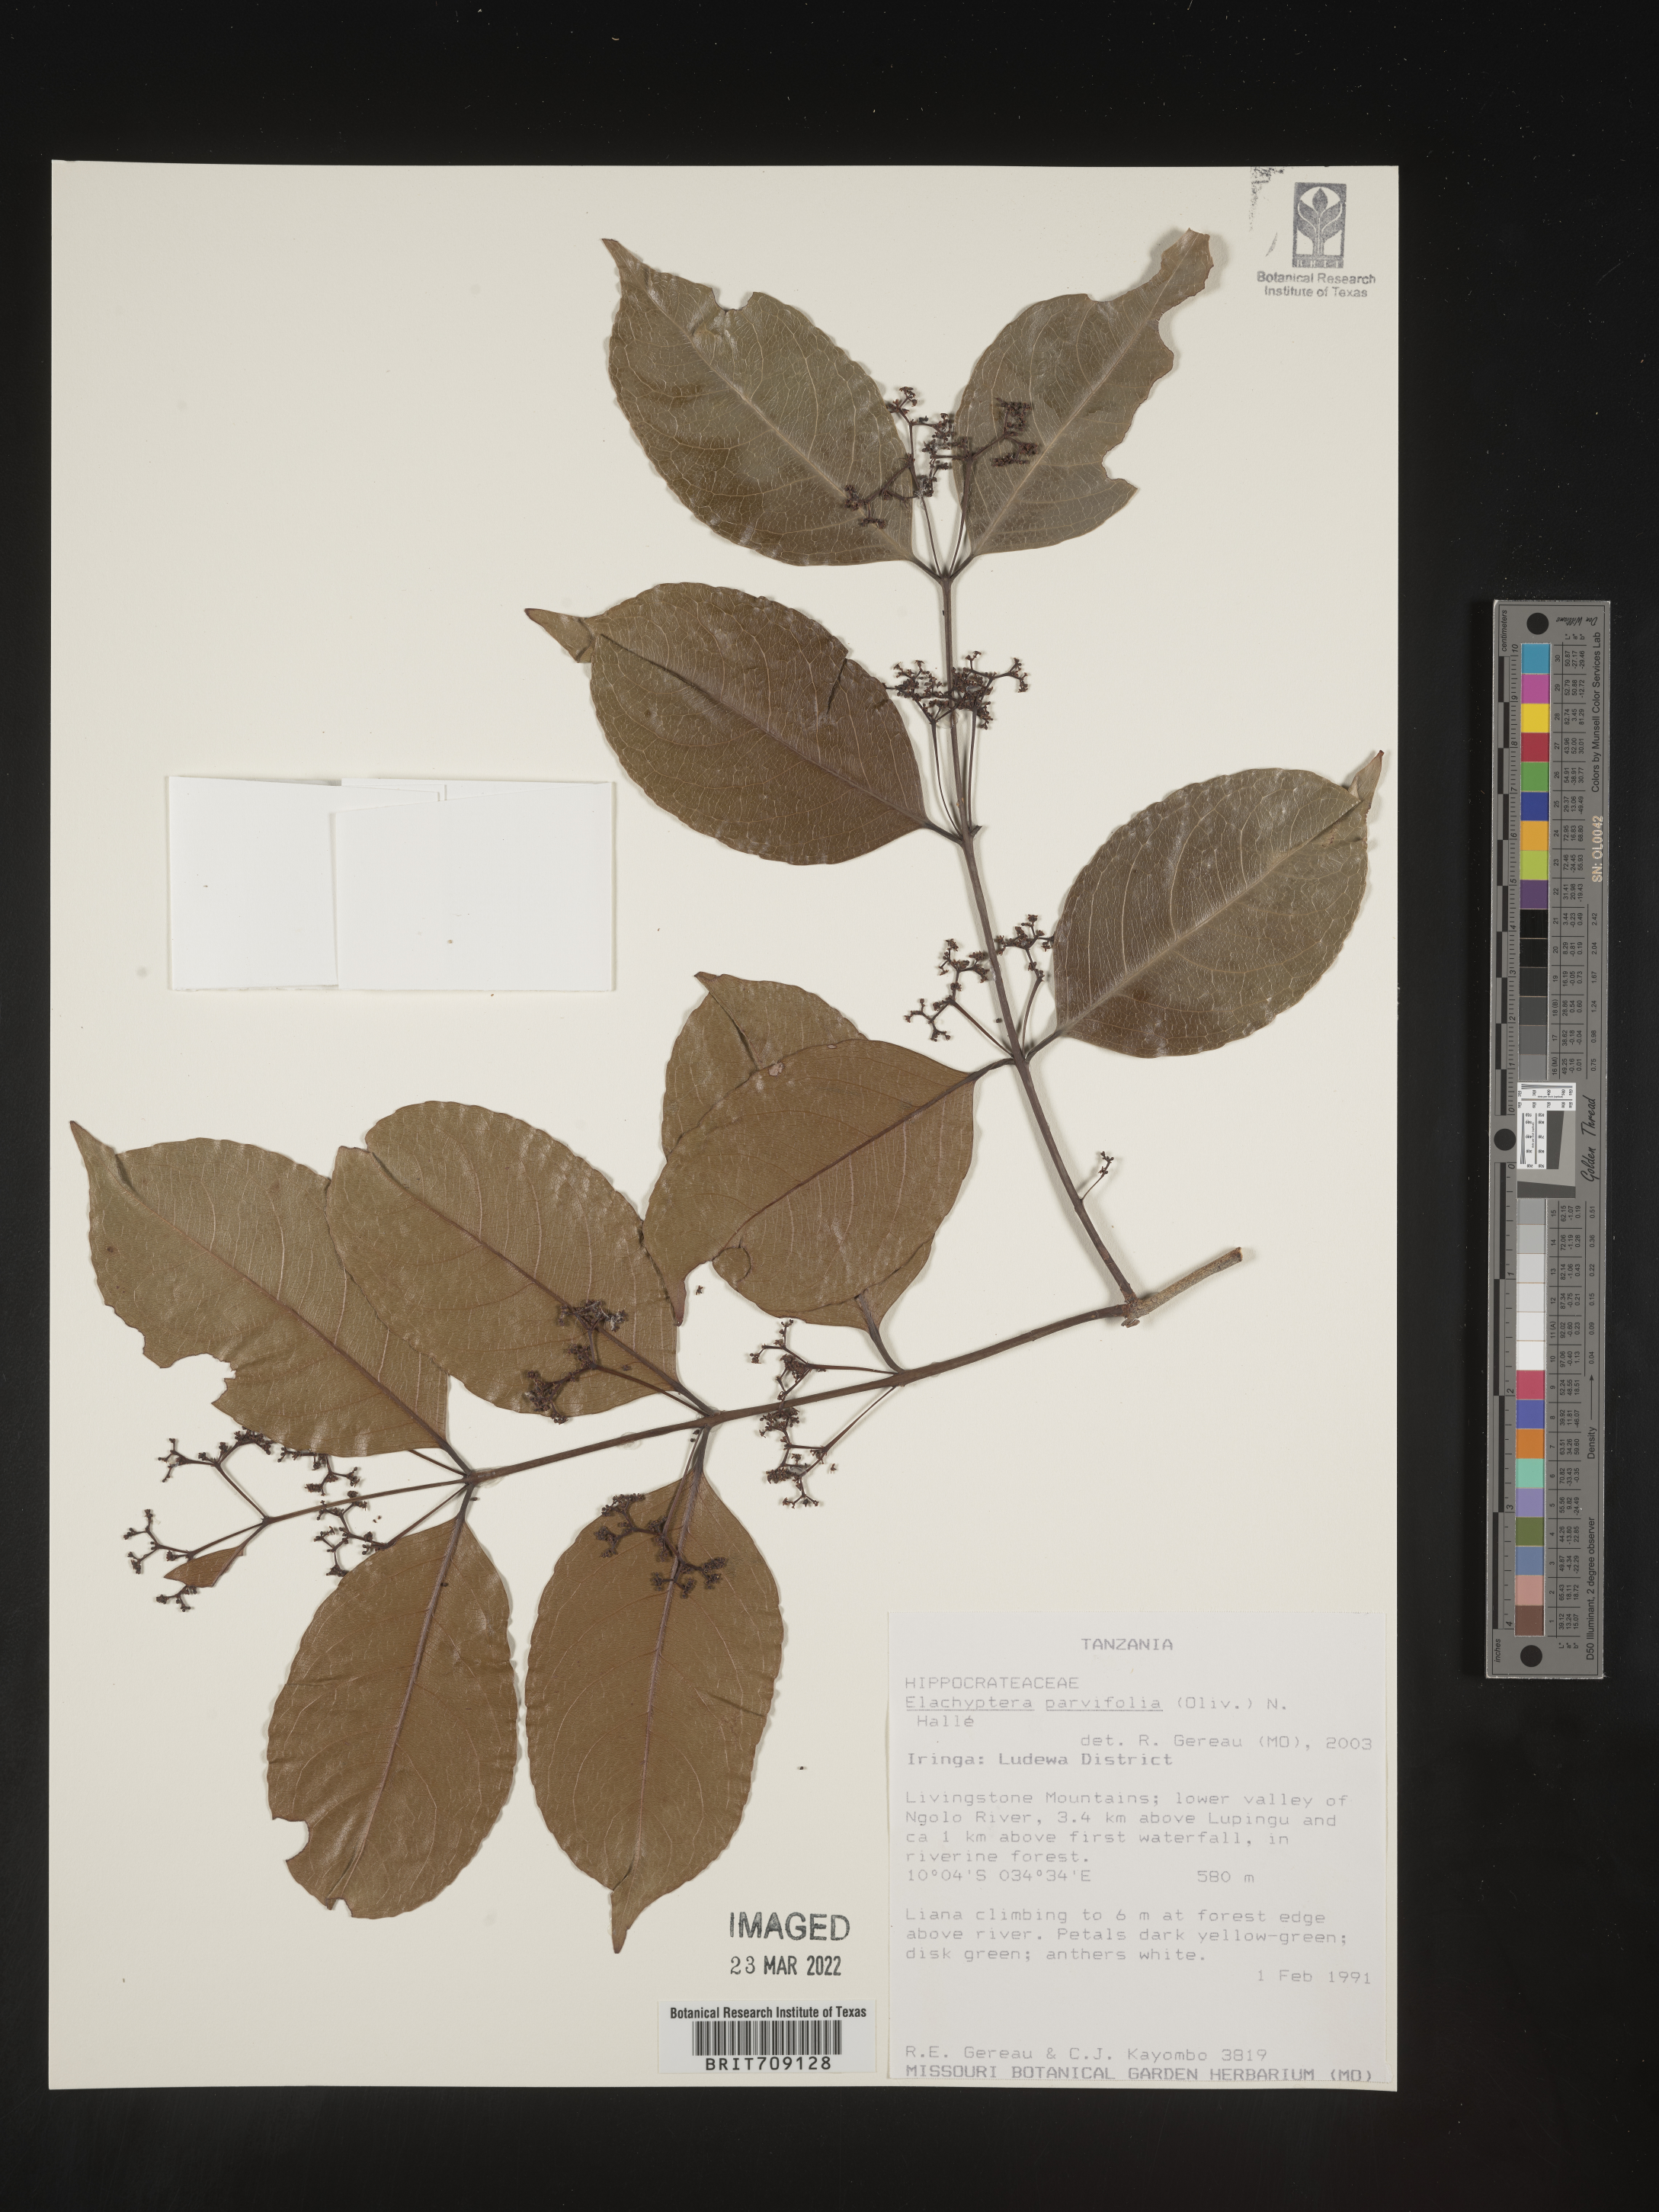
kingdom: Plantae
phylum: Tracheophyta
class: Magnoliopsida
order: Celastrales
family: Celastraceae
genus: Elachyptera
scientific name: Elachyptera
